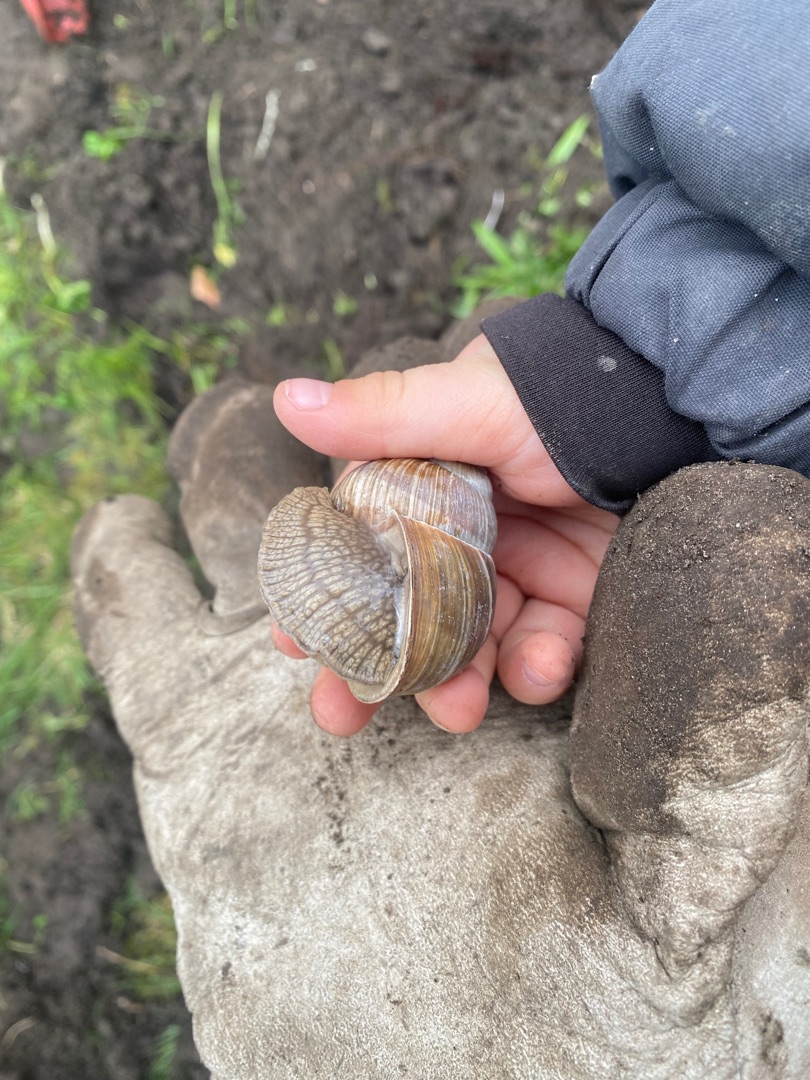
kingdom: Animalia
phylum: Mollusca
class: Gastropoda
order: Stylommatophora
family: Helicidae
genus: Helix
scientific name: Helix pomatia
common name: Vinbjergsnegl
